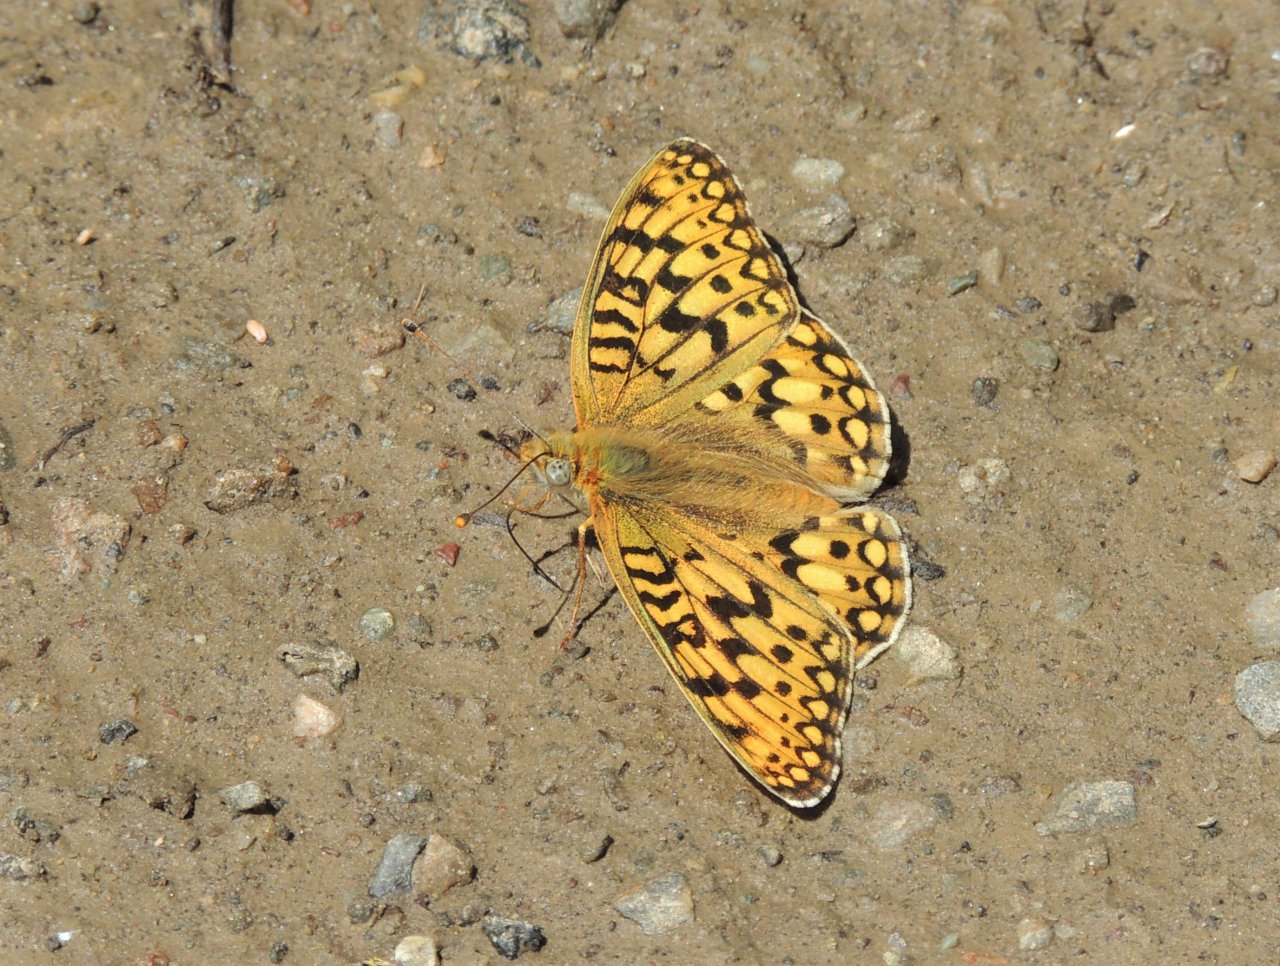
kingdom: Animalia
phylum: Arthropoda
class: Insecta
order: Lepidoptera
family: Nymphalidae
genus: Speyeria
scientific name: Speyeria callippe
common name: Callippe Fritillary
